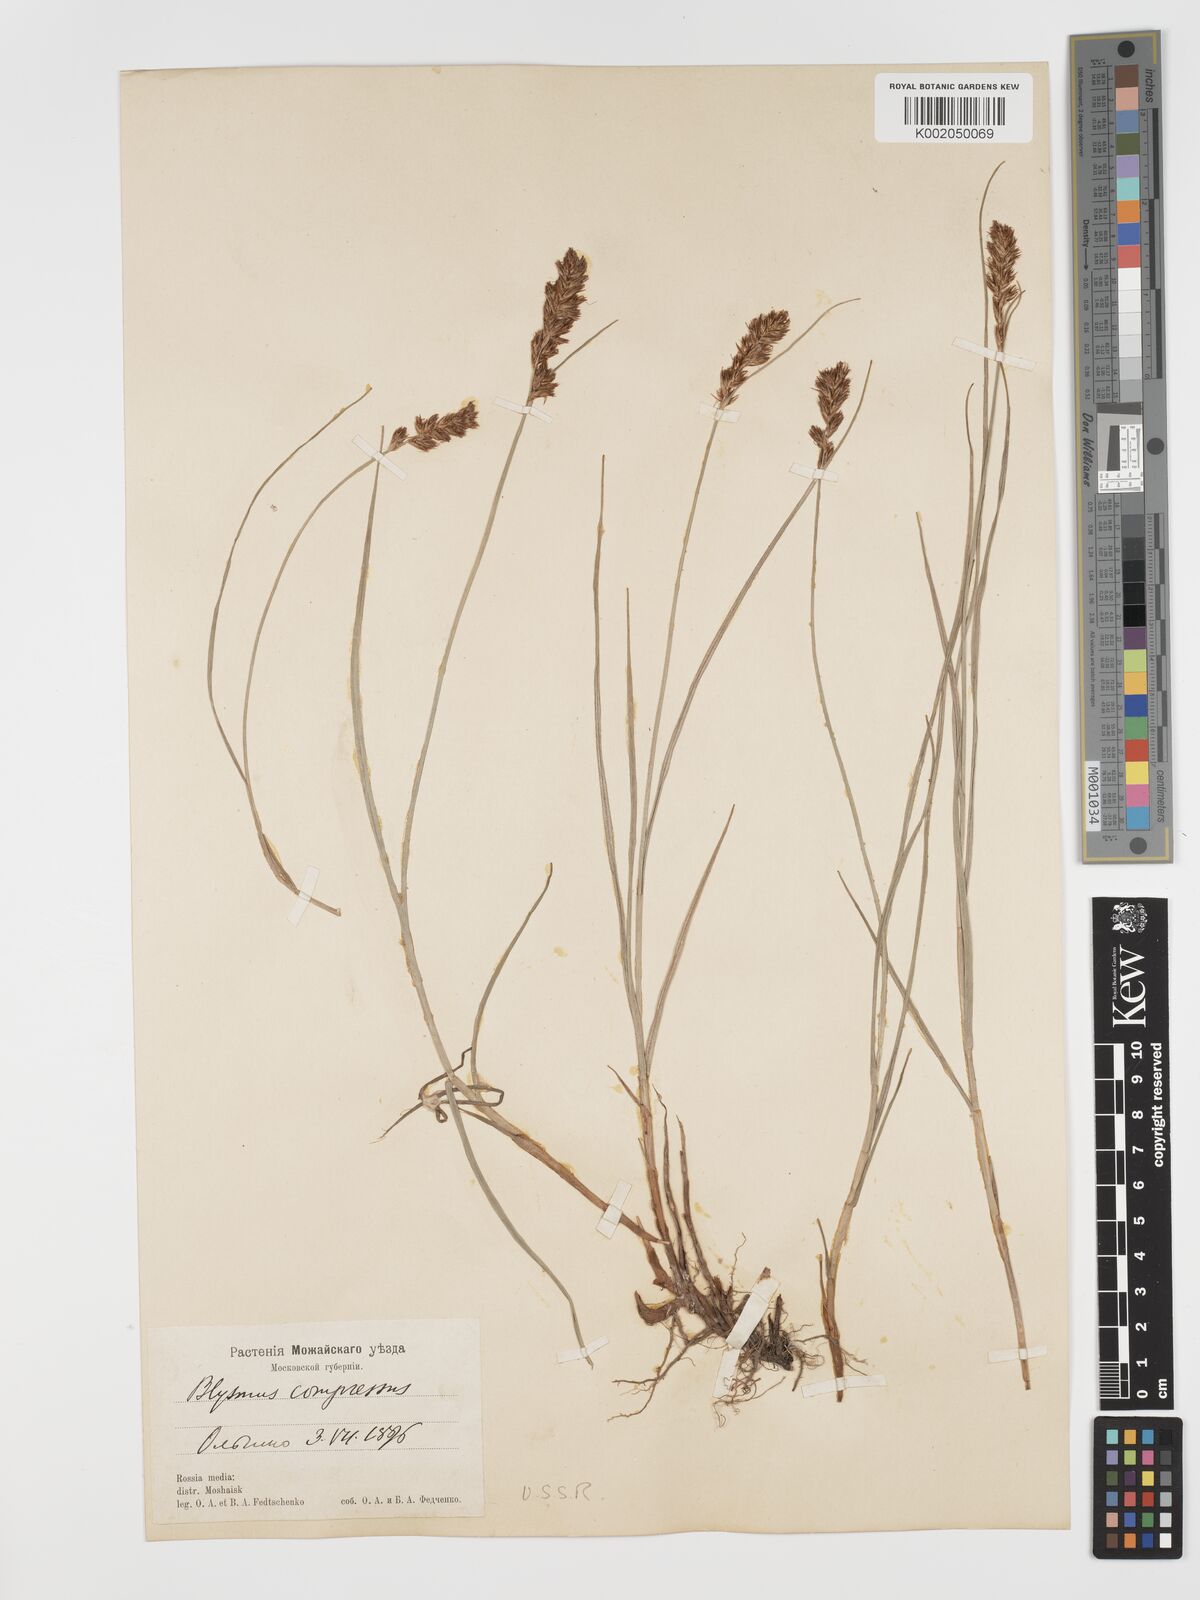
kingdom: Plantae
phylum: Tracheophyta
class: Liliopsida
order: Poales
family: Cyperaceae
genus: Blysmus
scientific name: Blysmus compressus
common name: Flat-sedge
